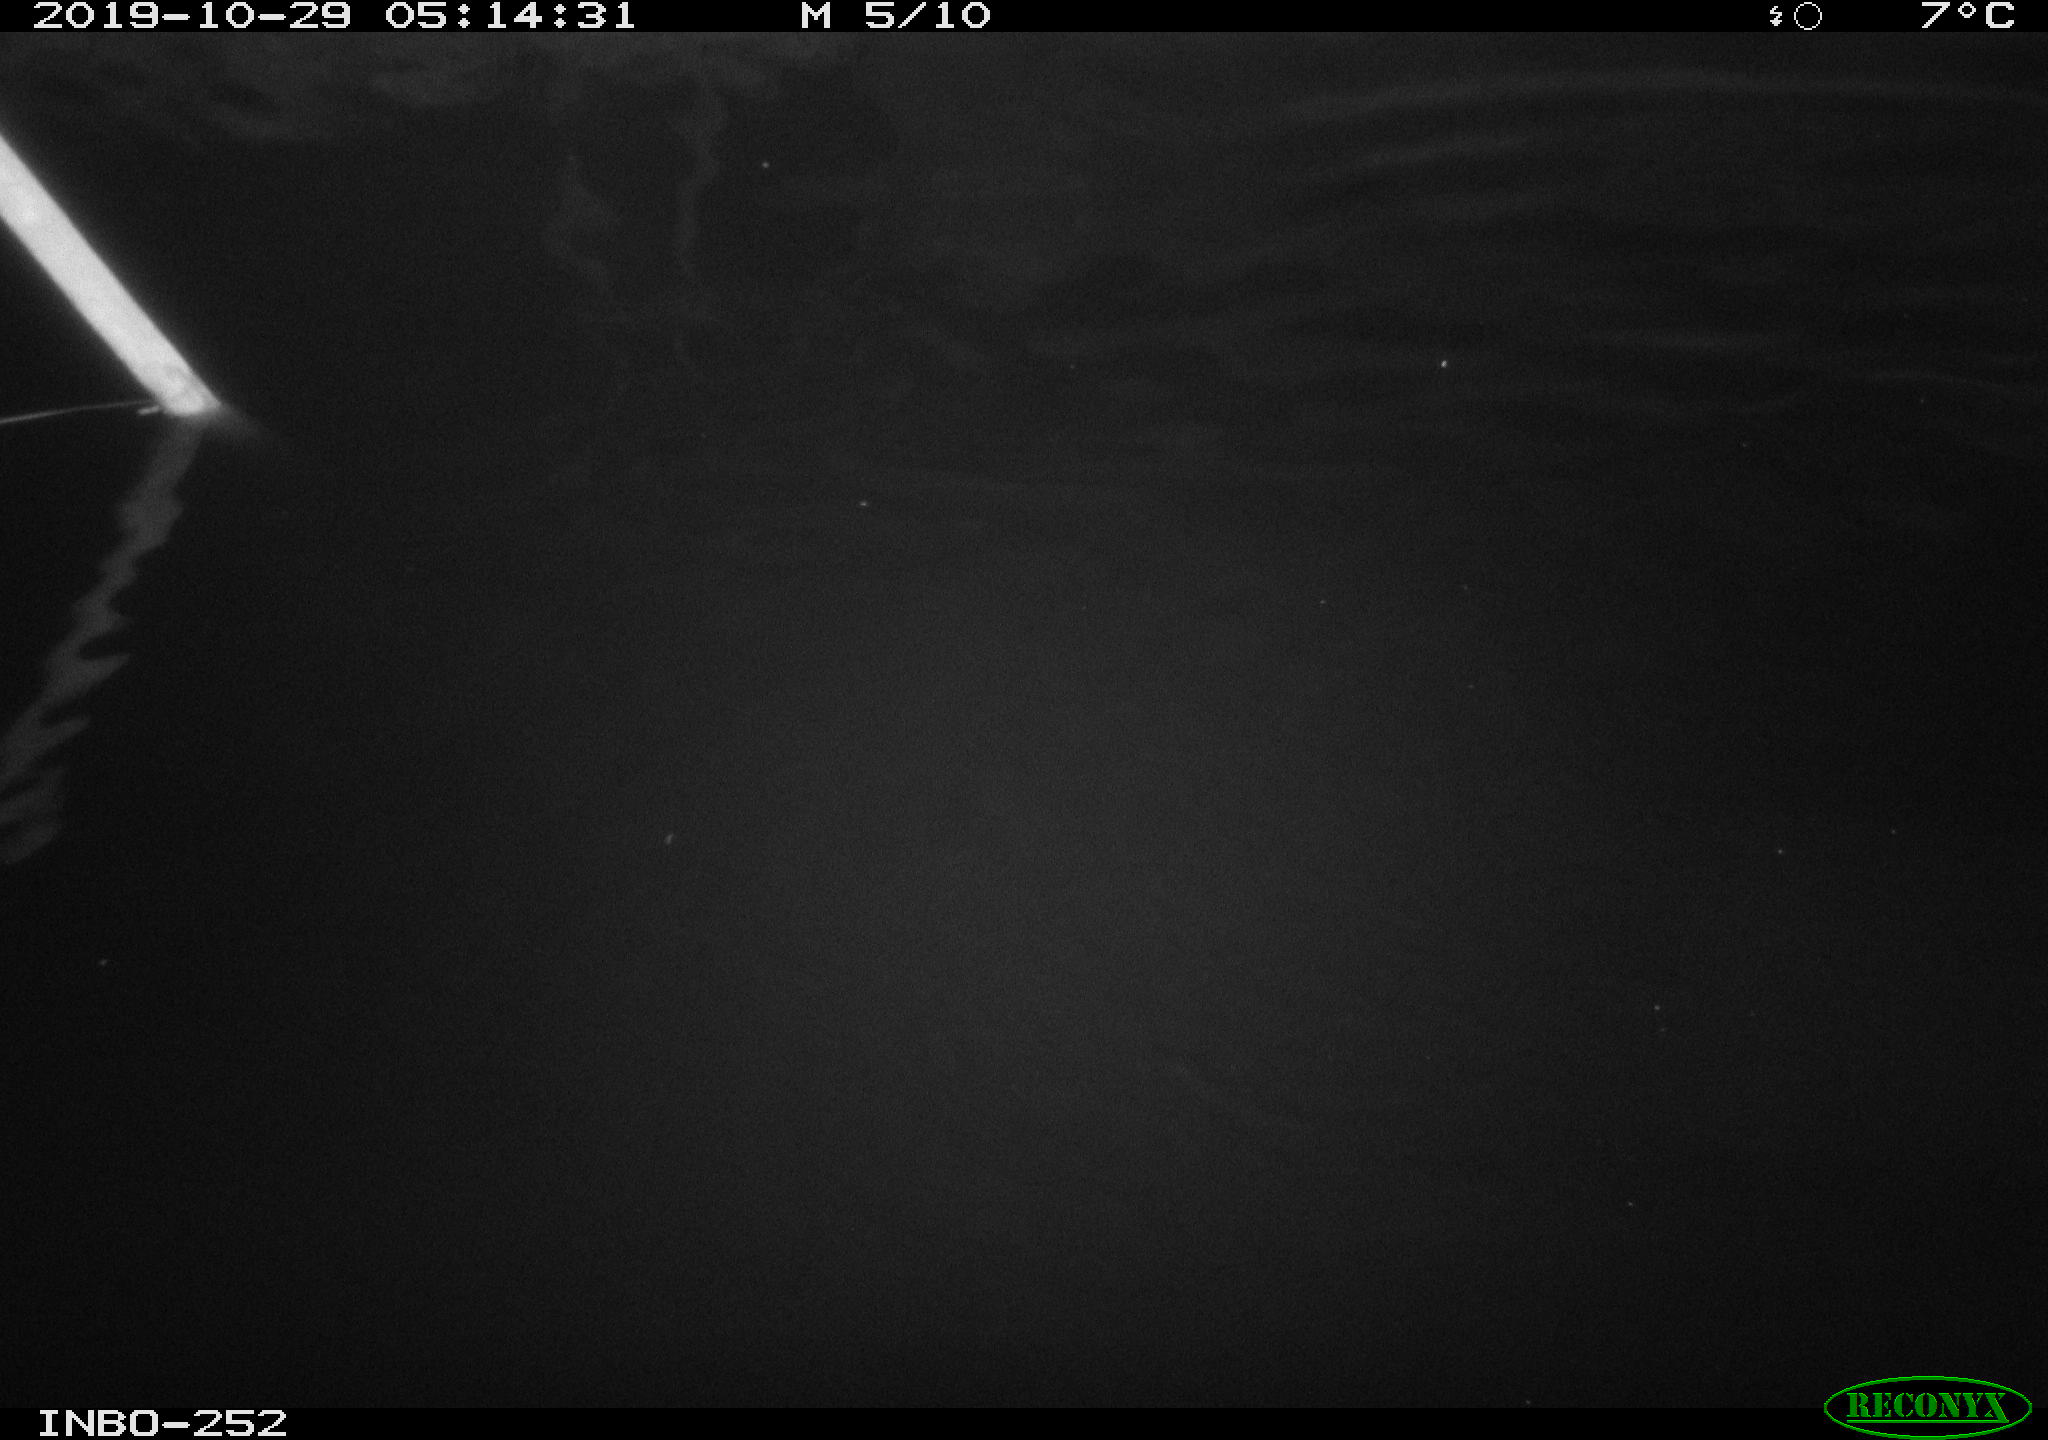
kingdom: Animalia
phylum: Chordata
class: Aves
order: Anseriformes
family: Anatidae
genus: Anas
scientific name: Anas platyrhynchos
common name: Mallard
